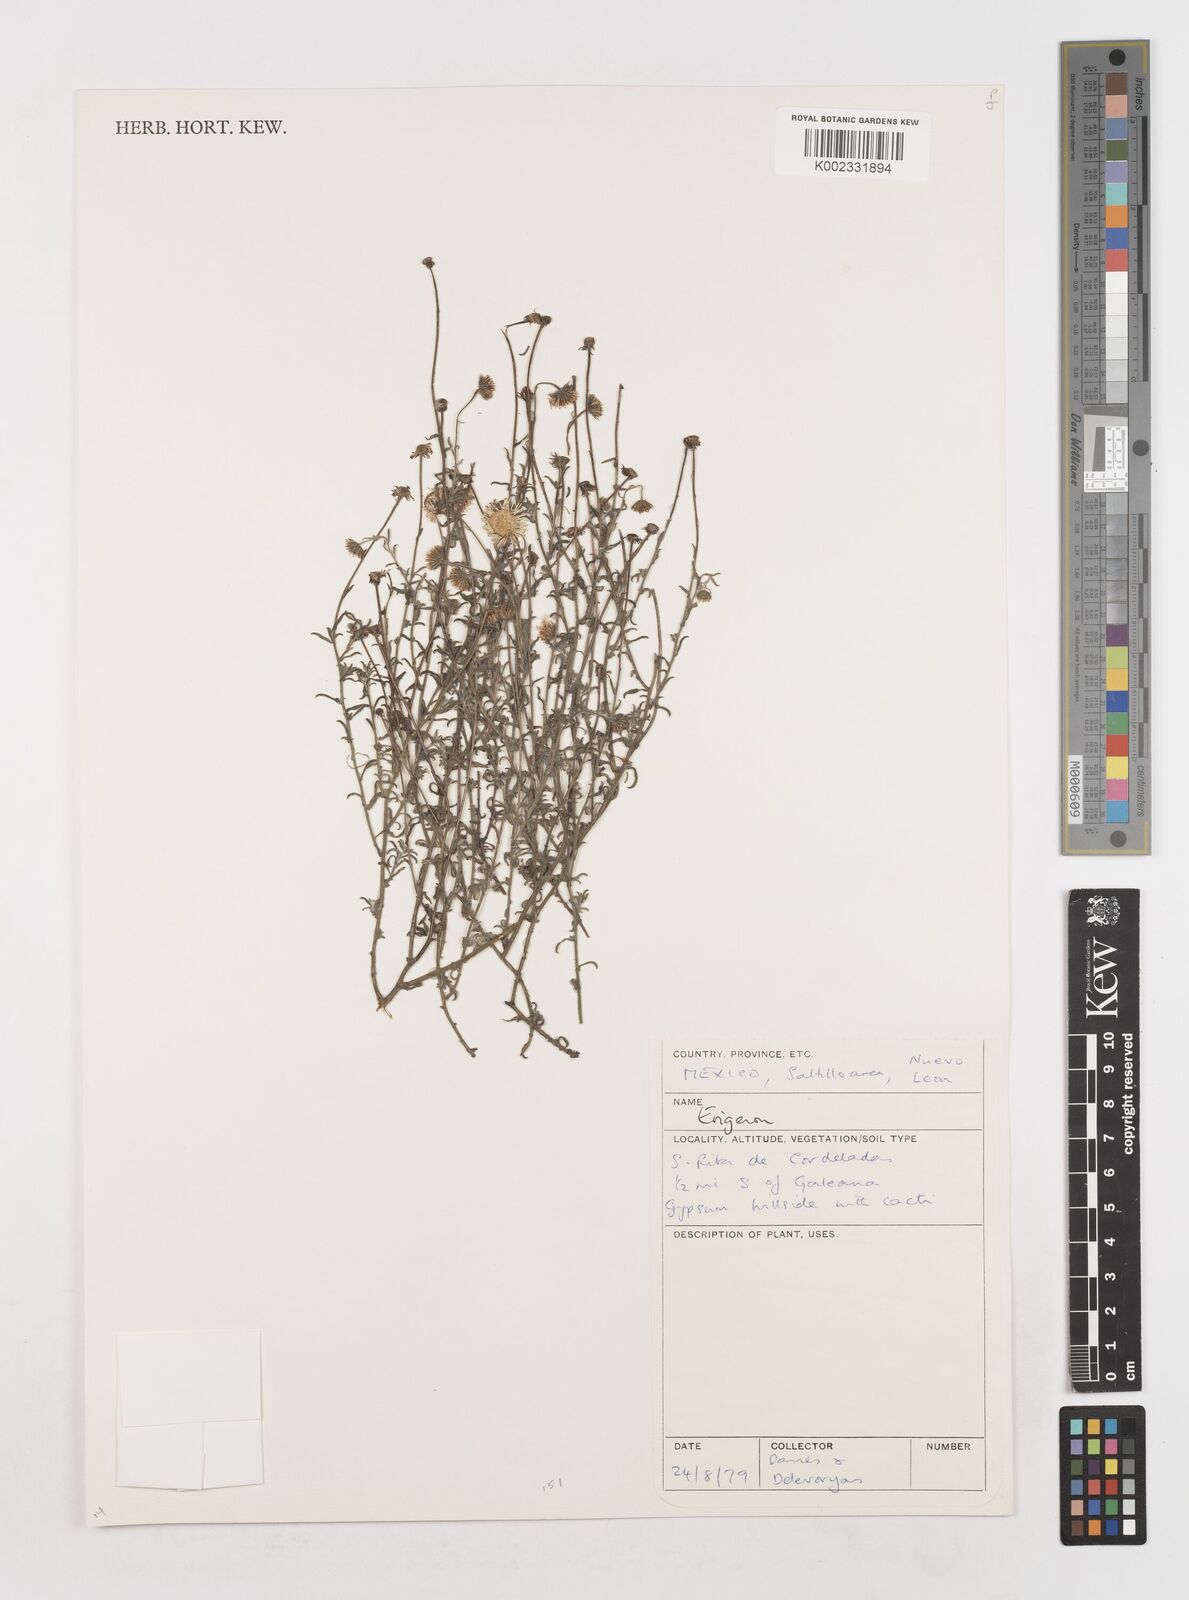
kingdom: Plantae
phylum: Tracheophyta
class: Magnoliopsida
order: Asterales
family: Asteraceae
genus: Erigeron
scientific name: Erigeron
